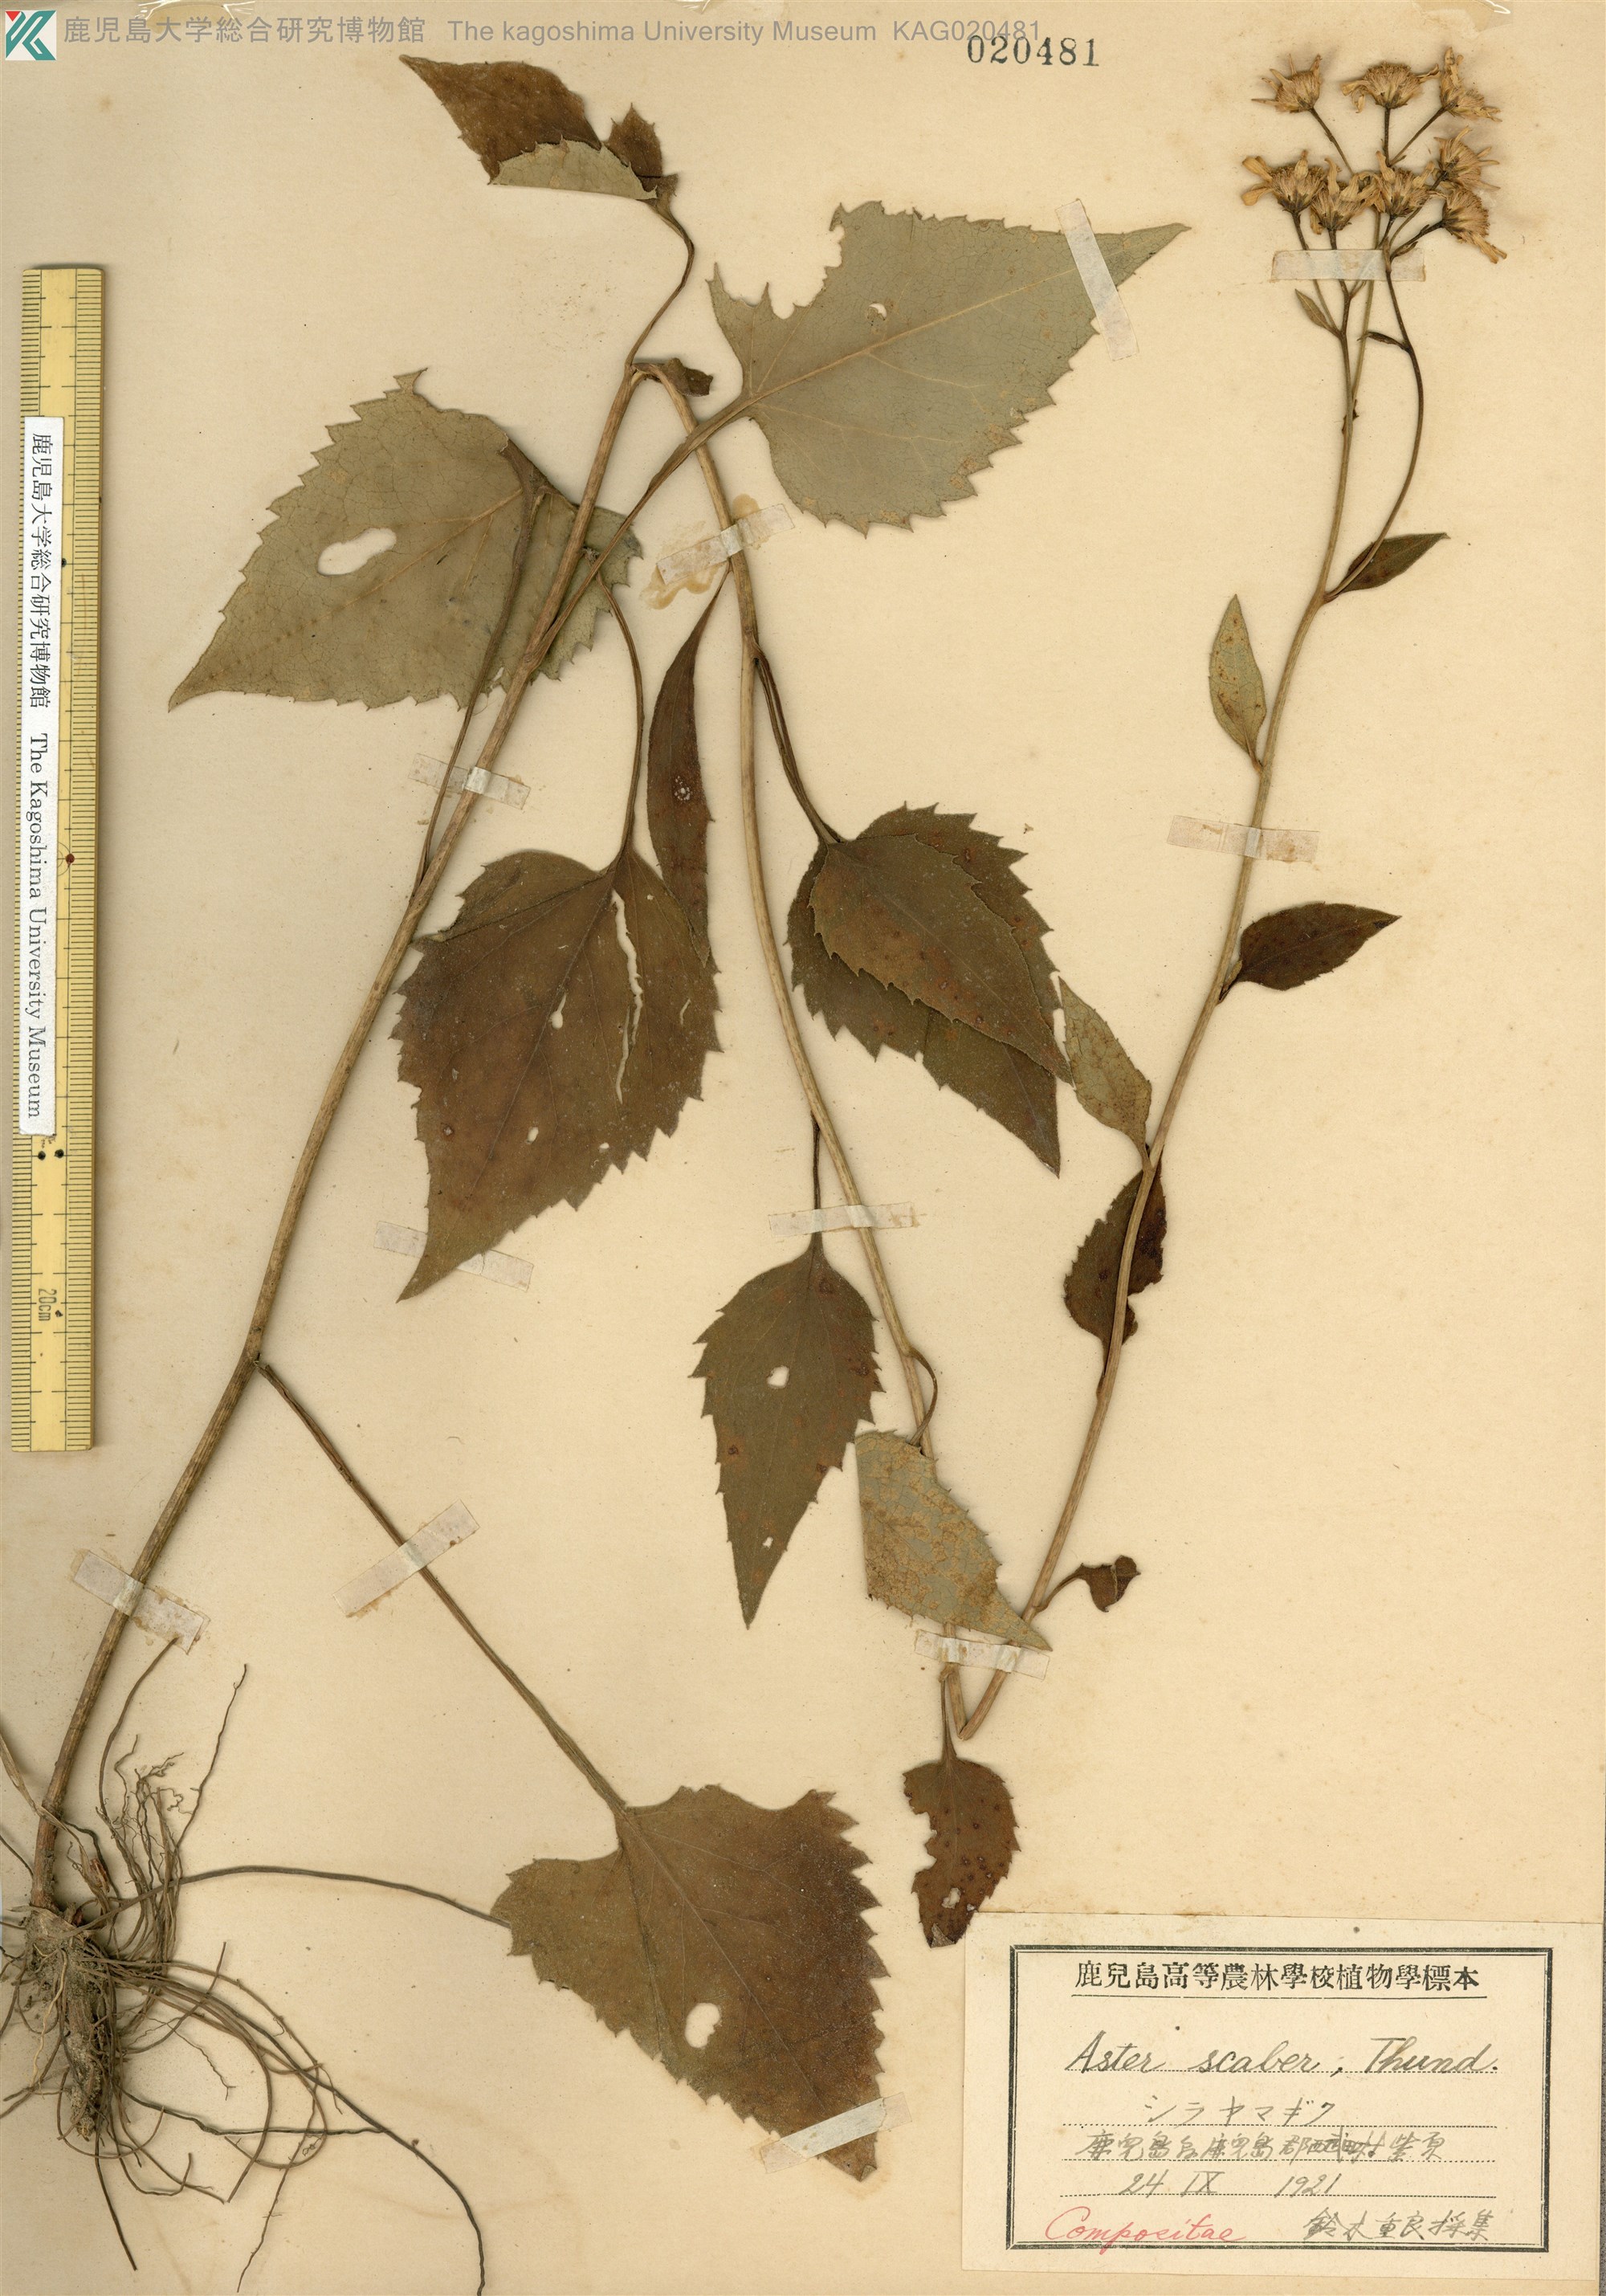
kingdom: Plantae
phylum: Tracheophyta
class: Magnoliopsida
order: Asterales
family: Asteraceae
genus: Cardiagyris
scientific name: Cardiagyris scabra
